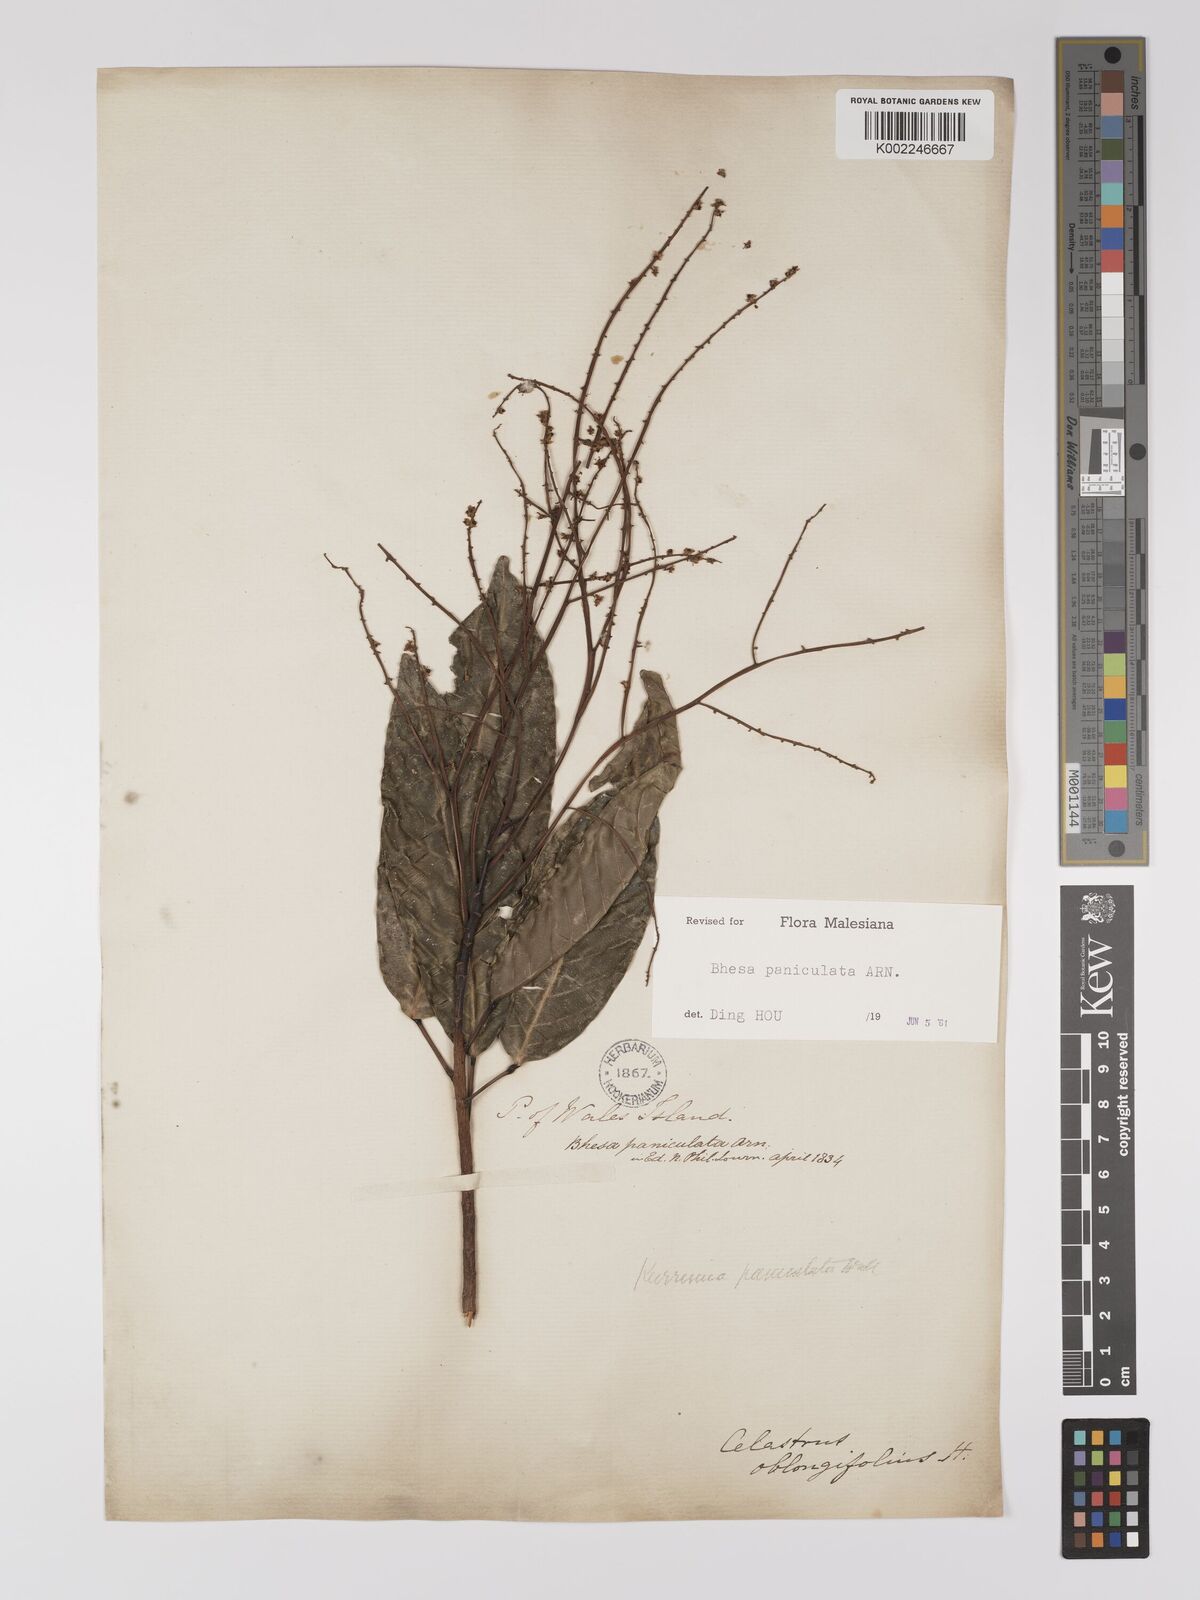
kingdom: Plantae
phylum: Tracheophyta
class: Magnoliopsida
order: Malpighiales
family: Centroplacaceae
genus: Bhesa
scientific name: Bhesa paniculata
